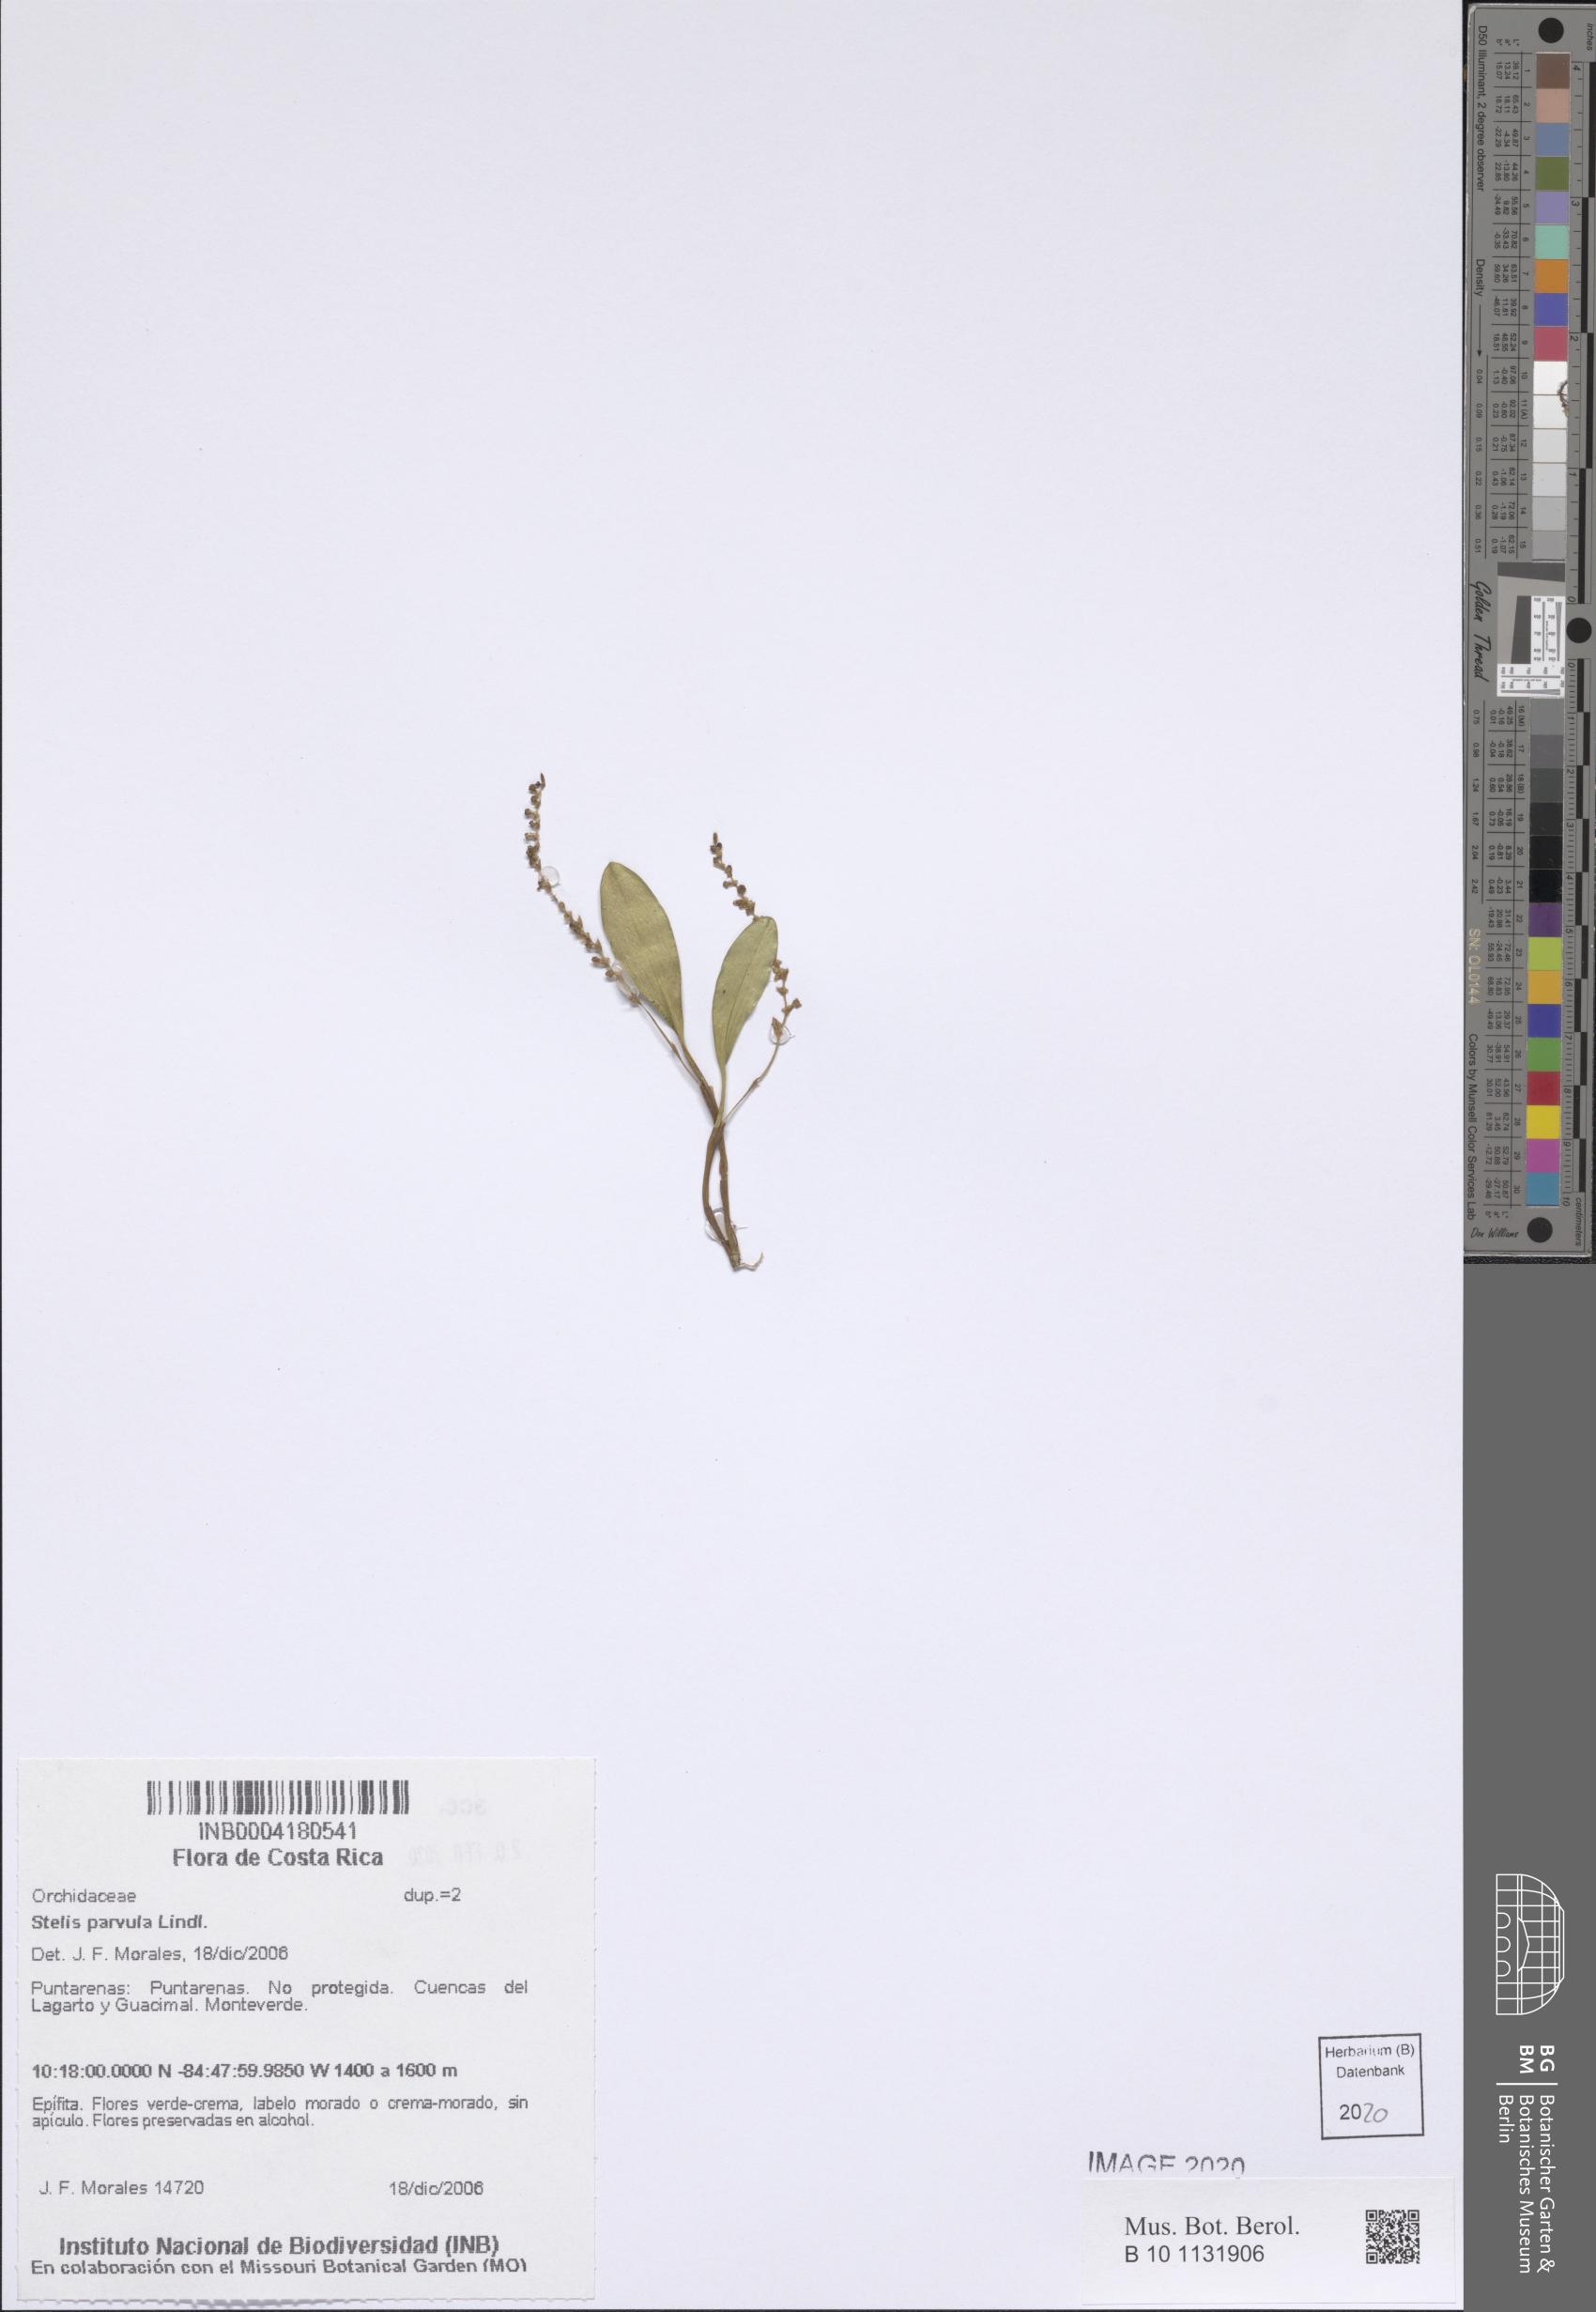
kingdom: Plantae
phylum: Tracheophyta
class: Liliopsida
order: Asparagales
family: Orchidaceae
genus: Stelis
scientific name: Stelis parvula
